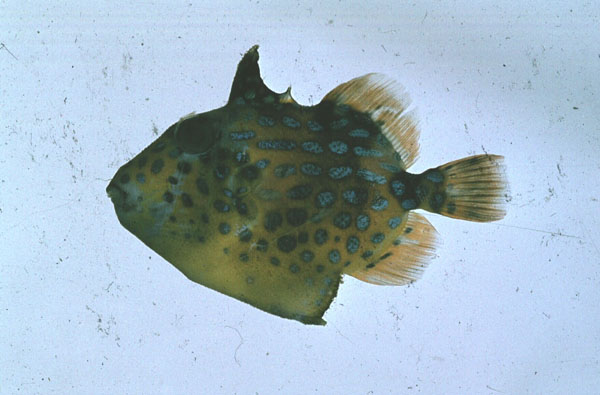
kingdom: Animalia
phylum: Chordata
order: Tetraodontiformes
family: Balistidae
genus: Pseudobalistes
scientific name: Pseudobalistes fuscus
